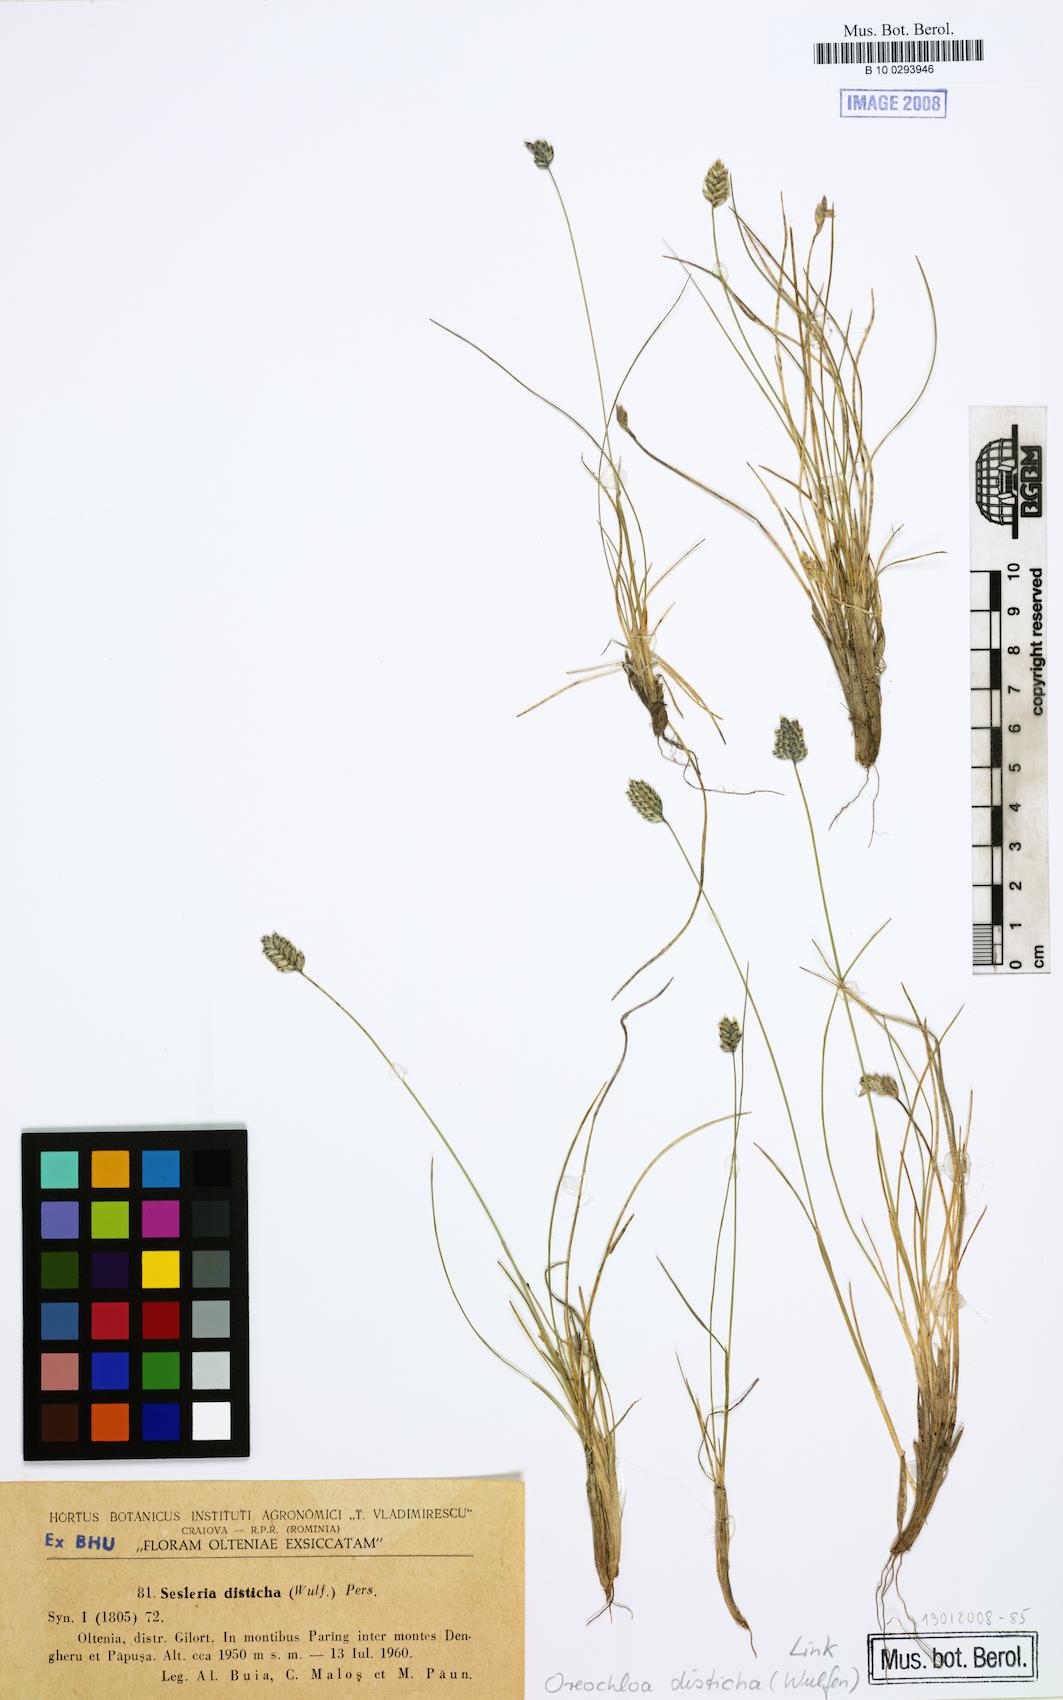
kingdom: Plantae
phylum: Tracheophyta
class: Liliopsida
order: Poales
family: Poaceae
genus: Oreochloa
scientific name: Oreochloa disticha
